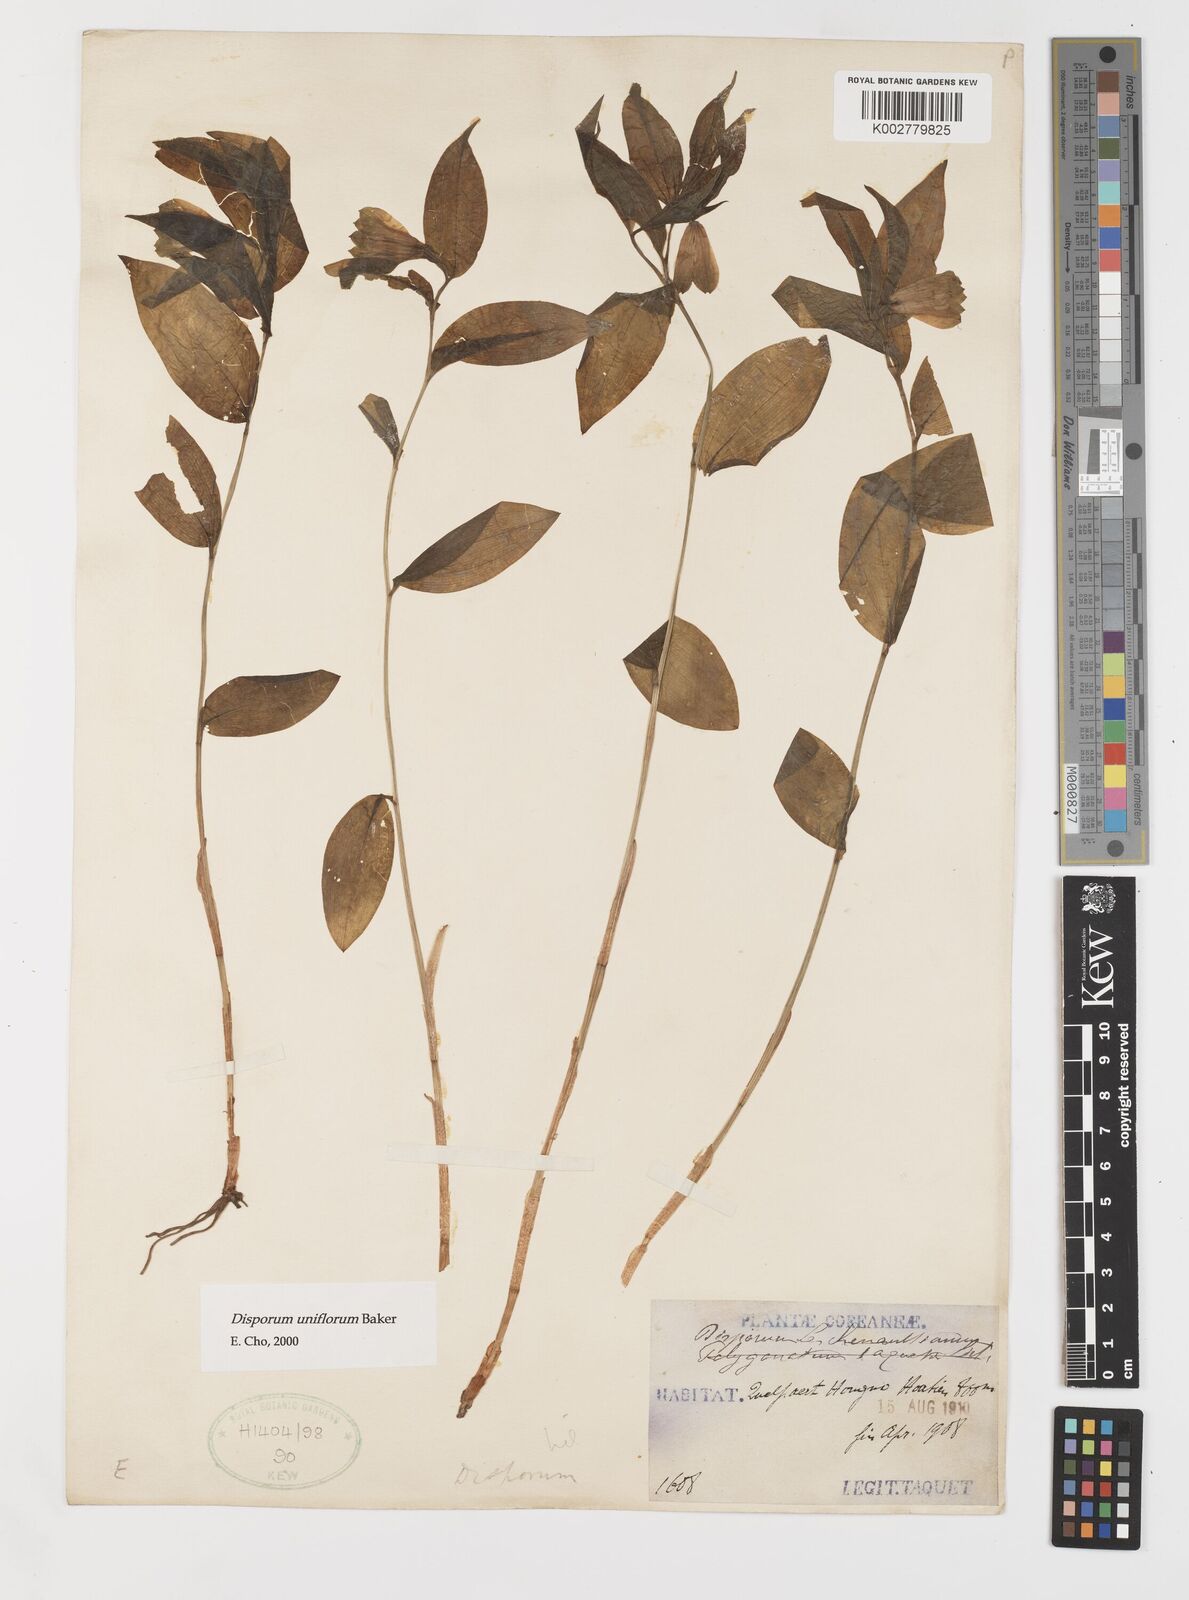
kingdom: Plantae
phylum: Tracheophyta
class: Liliopsida
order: Liliales
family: Colchicaceae
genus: Disporum
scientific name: Disporum smilacinum
